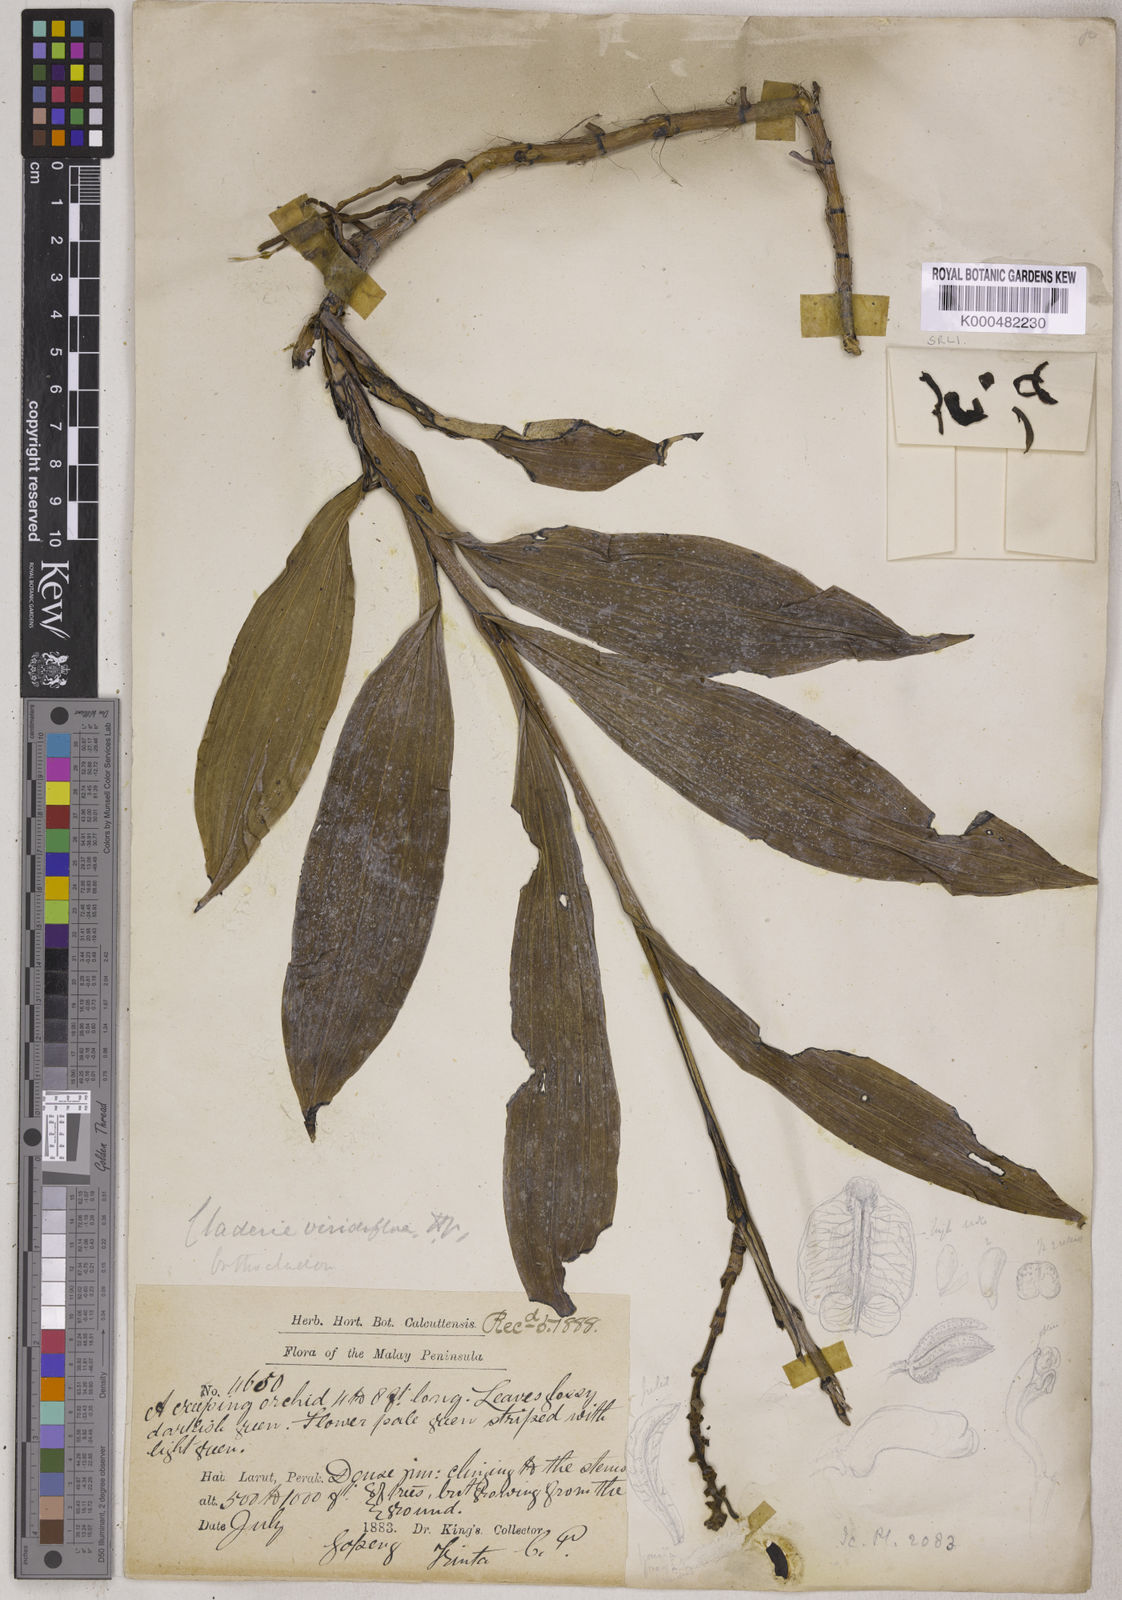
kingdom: Plantae
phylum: Tracheophyta
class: Liliopsida
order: Asparagales
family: Orchidaceae
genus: Claderia
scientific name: Claderia
